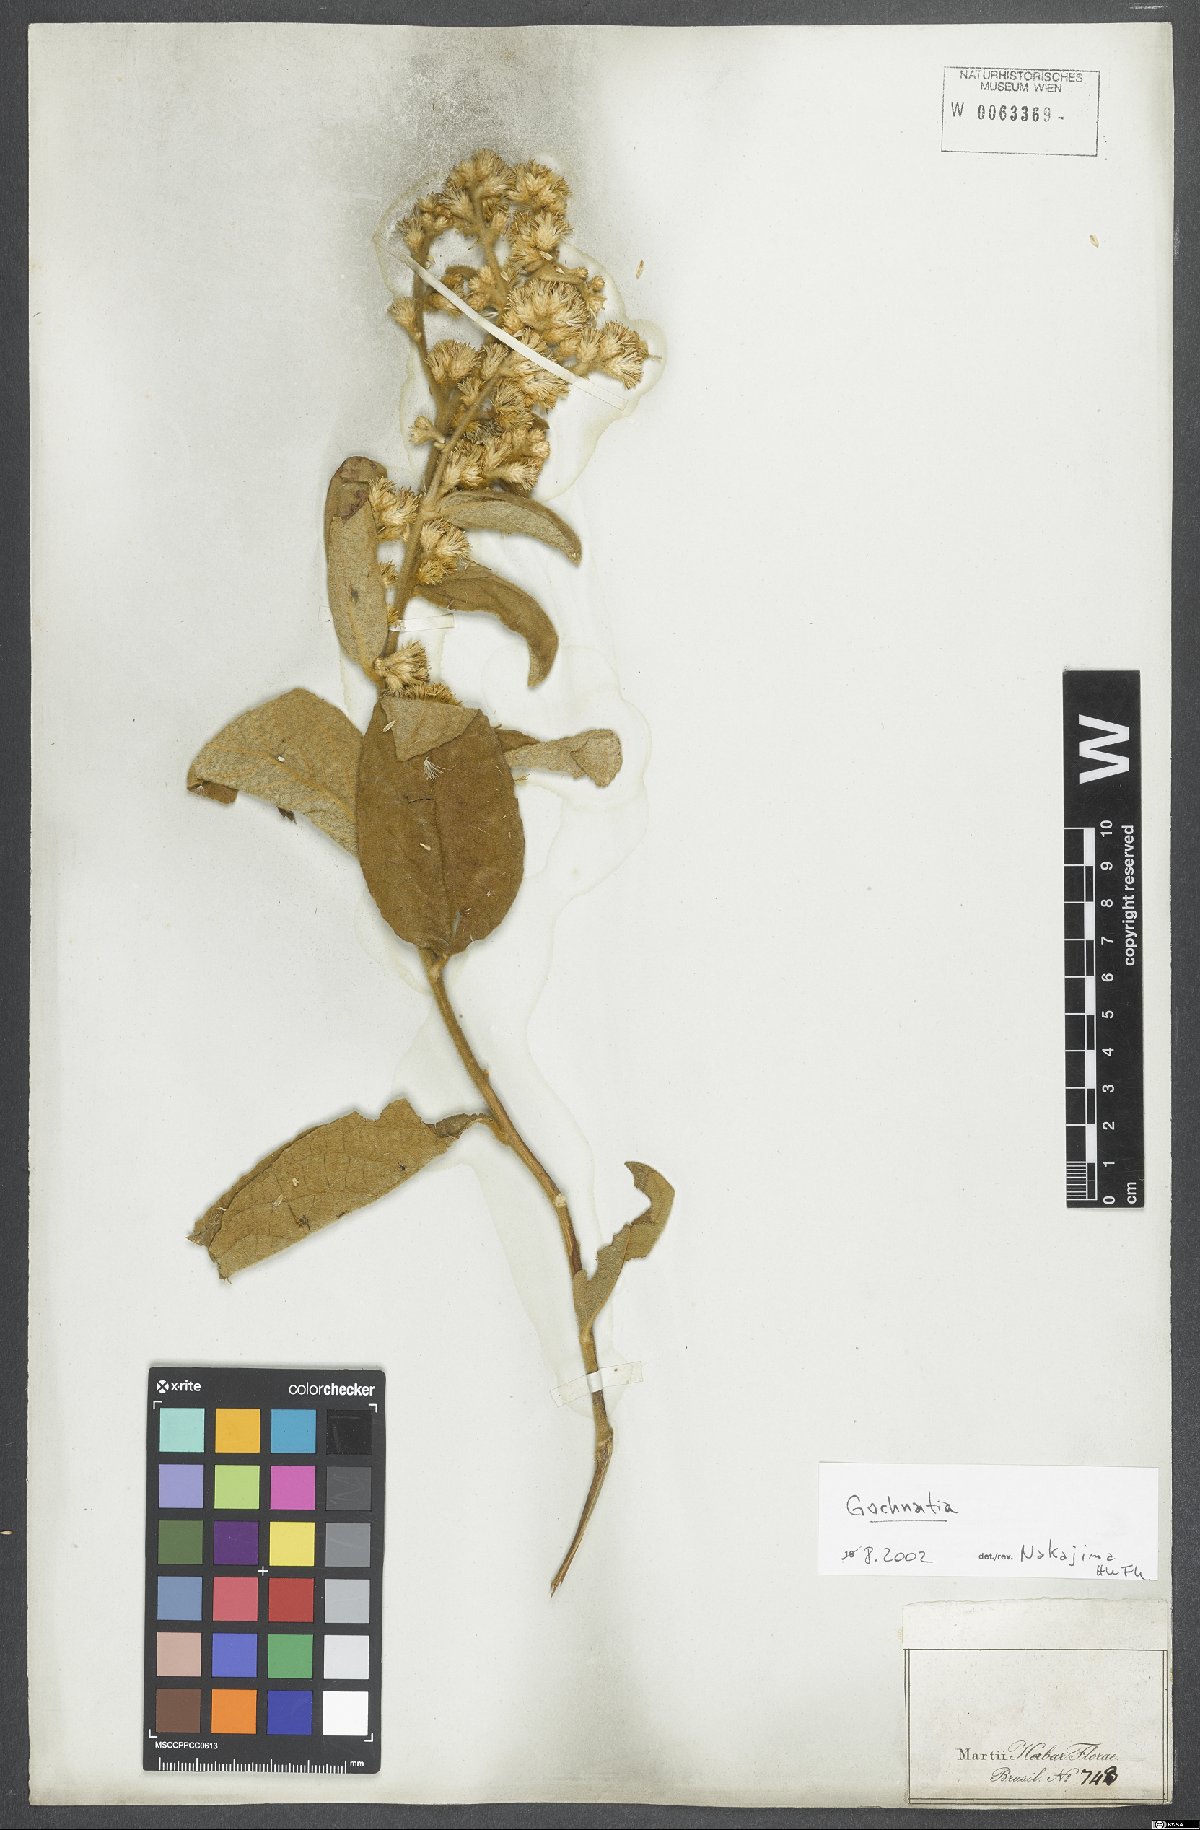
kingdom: Plantae
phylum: Tracheophyta
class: Magnoliopsida
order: Asterales
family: Asteraceae
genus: Gochnatia
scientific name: Gochnatia
